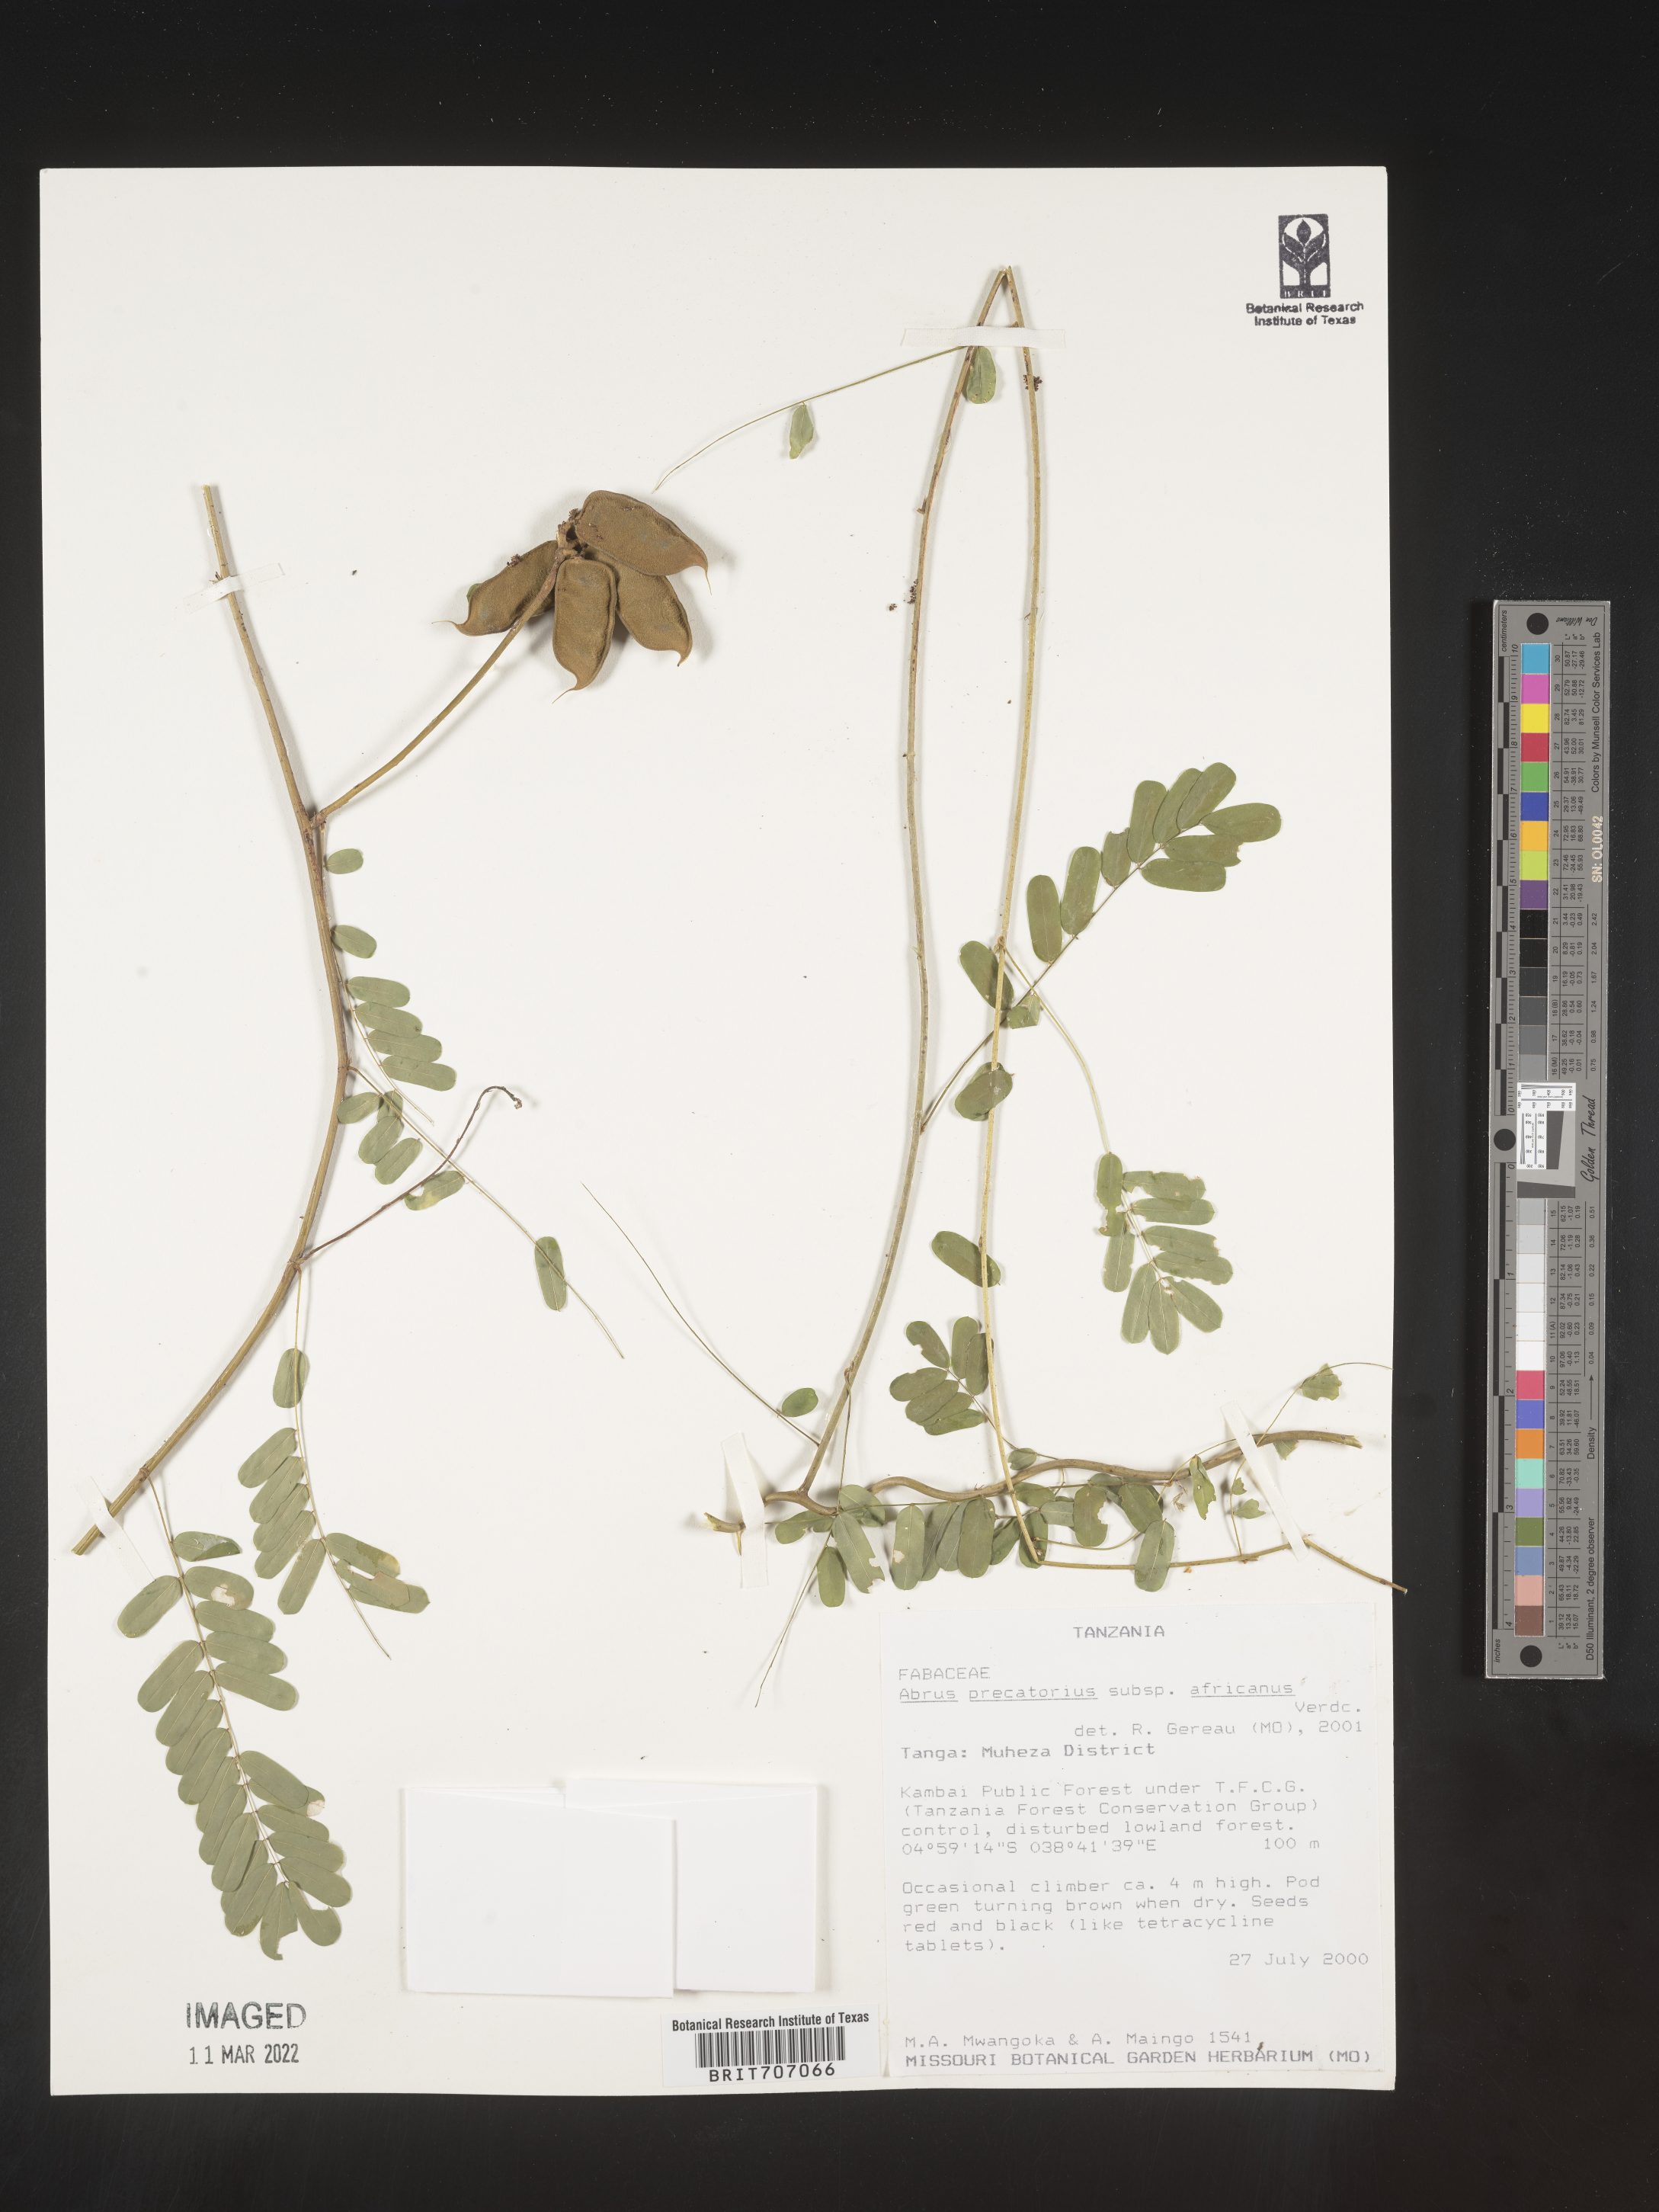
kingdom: Plantae
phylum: Tracheophyta
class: Magnoliopsida
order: Fabales
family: Fabaceae
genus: Abrus
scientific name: Abrus
